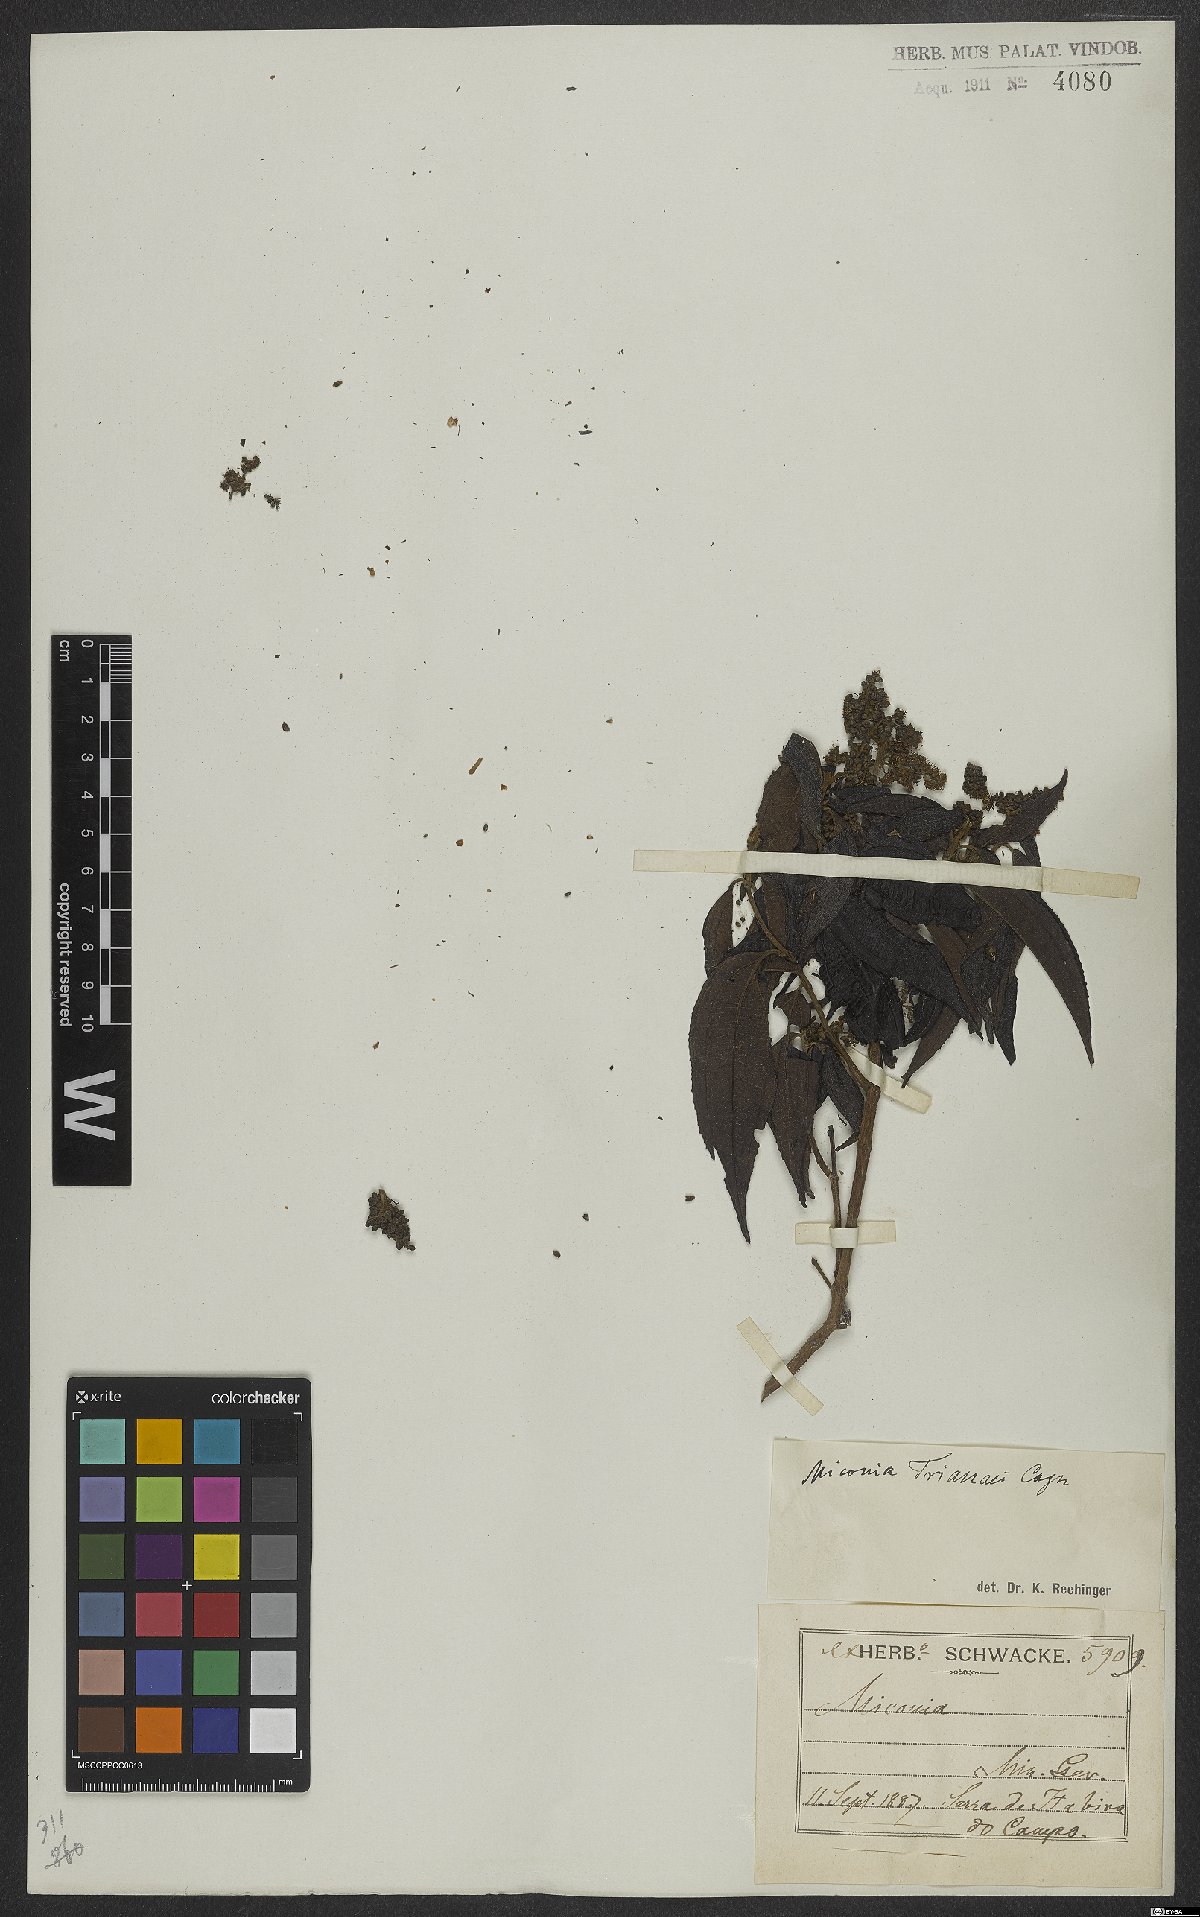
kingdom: Plantae
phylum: Tracheophyta
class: Magnoliopsida
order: Myrtales
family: Melastomataceae
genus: Miconia
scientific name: Miconia trianae
